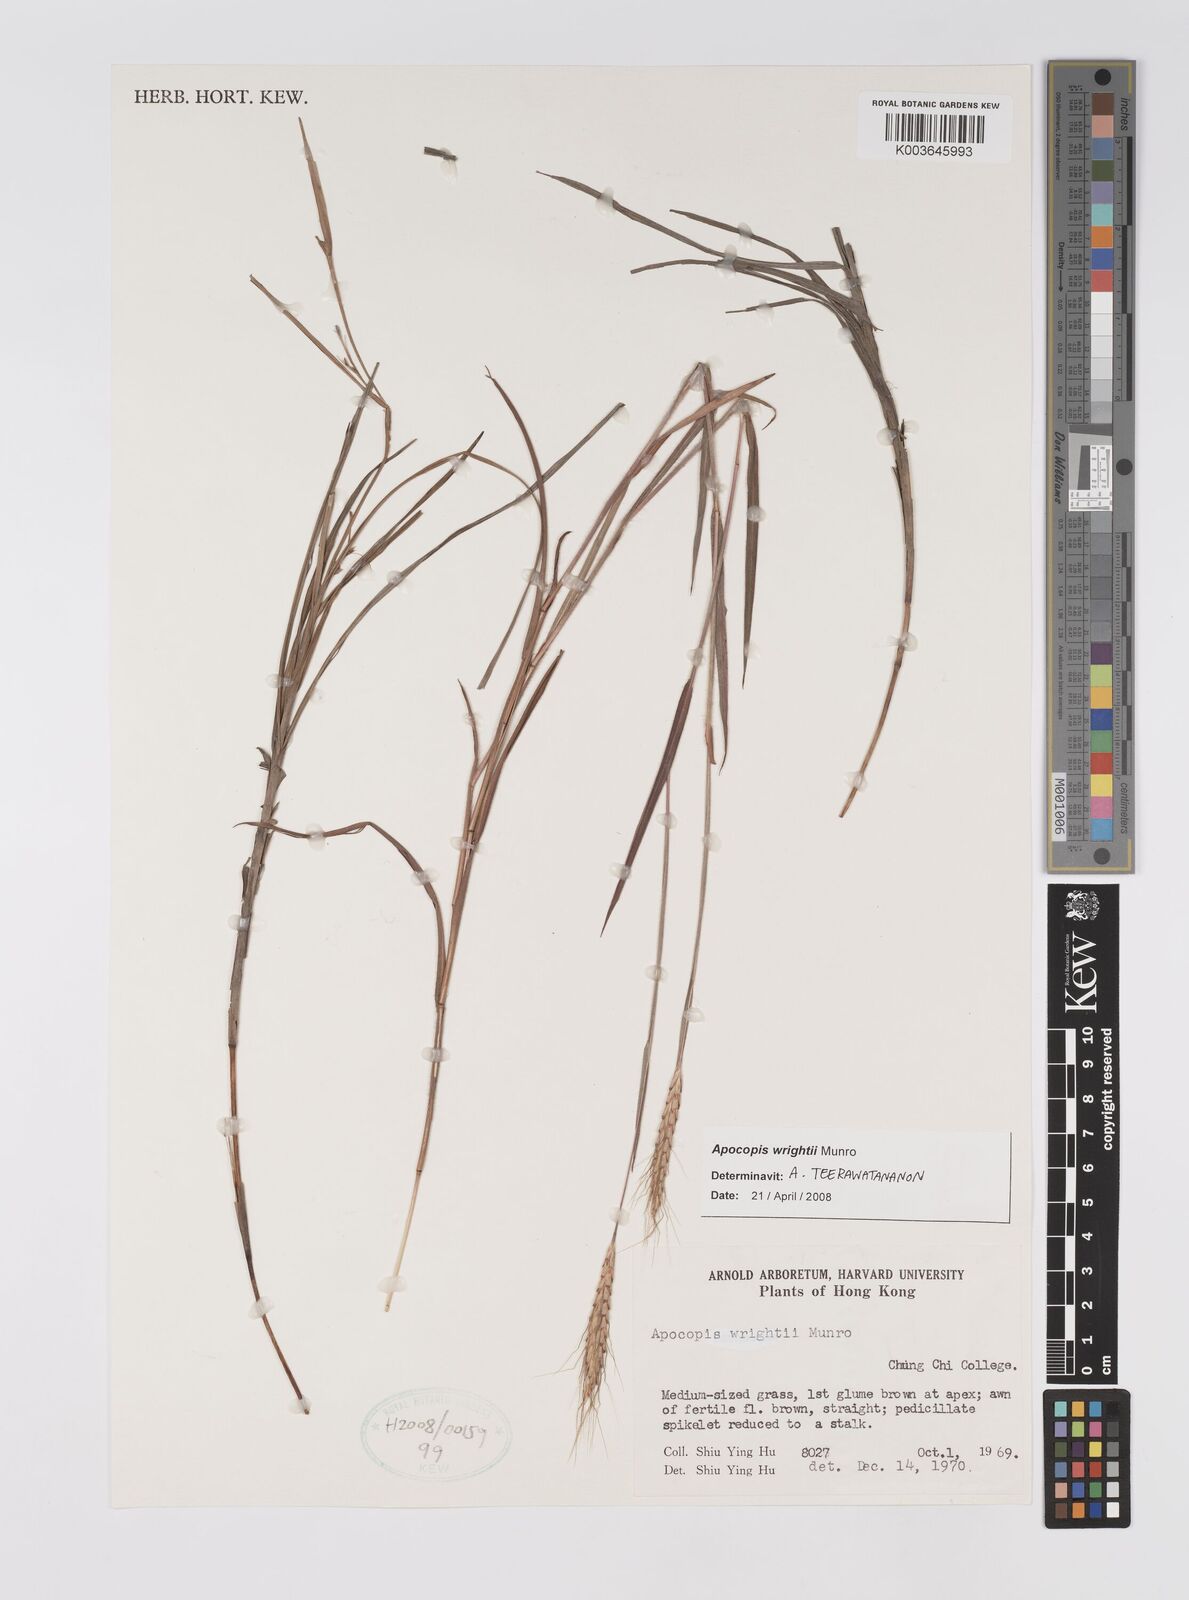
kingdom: Plantae
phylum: Tracheophyta
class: Liliopsida
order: Poales
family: Poaceae
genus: Apocopis
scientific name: Apocopis wrightii
